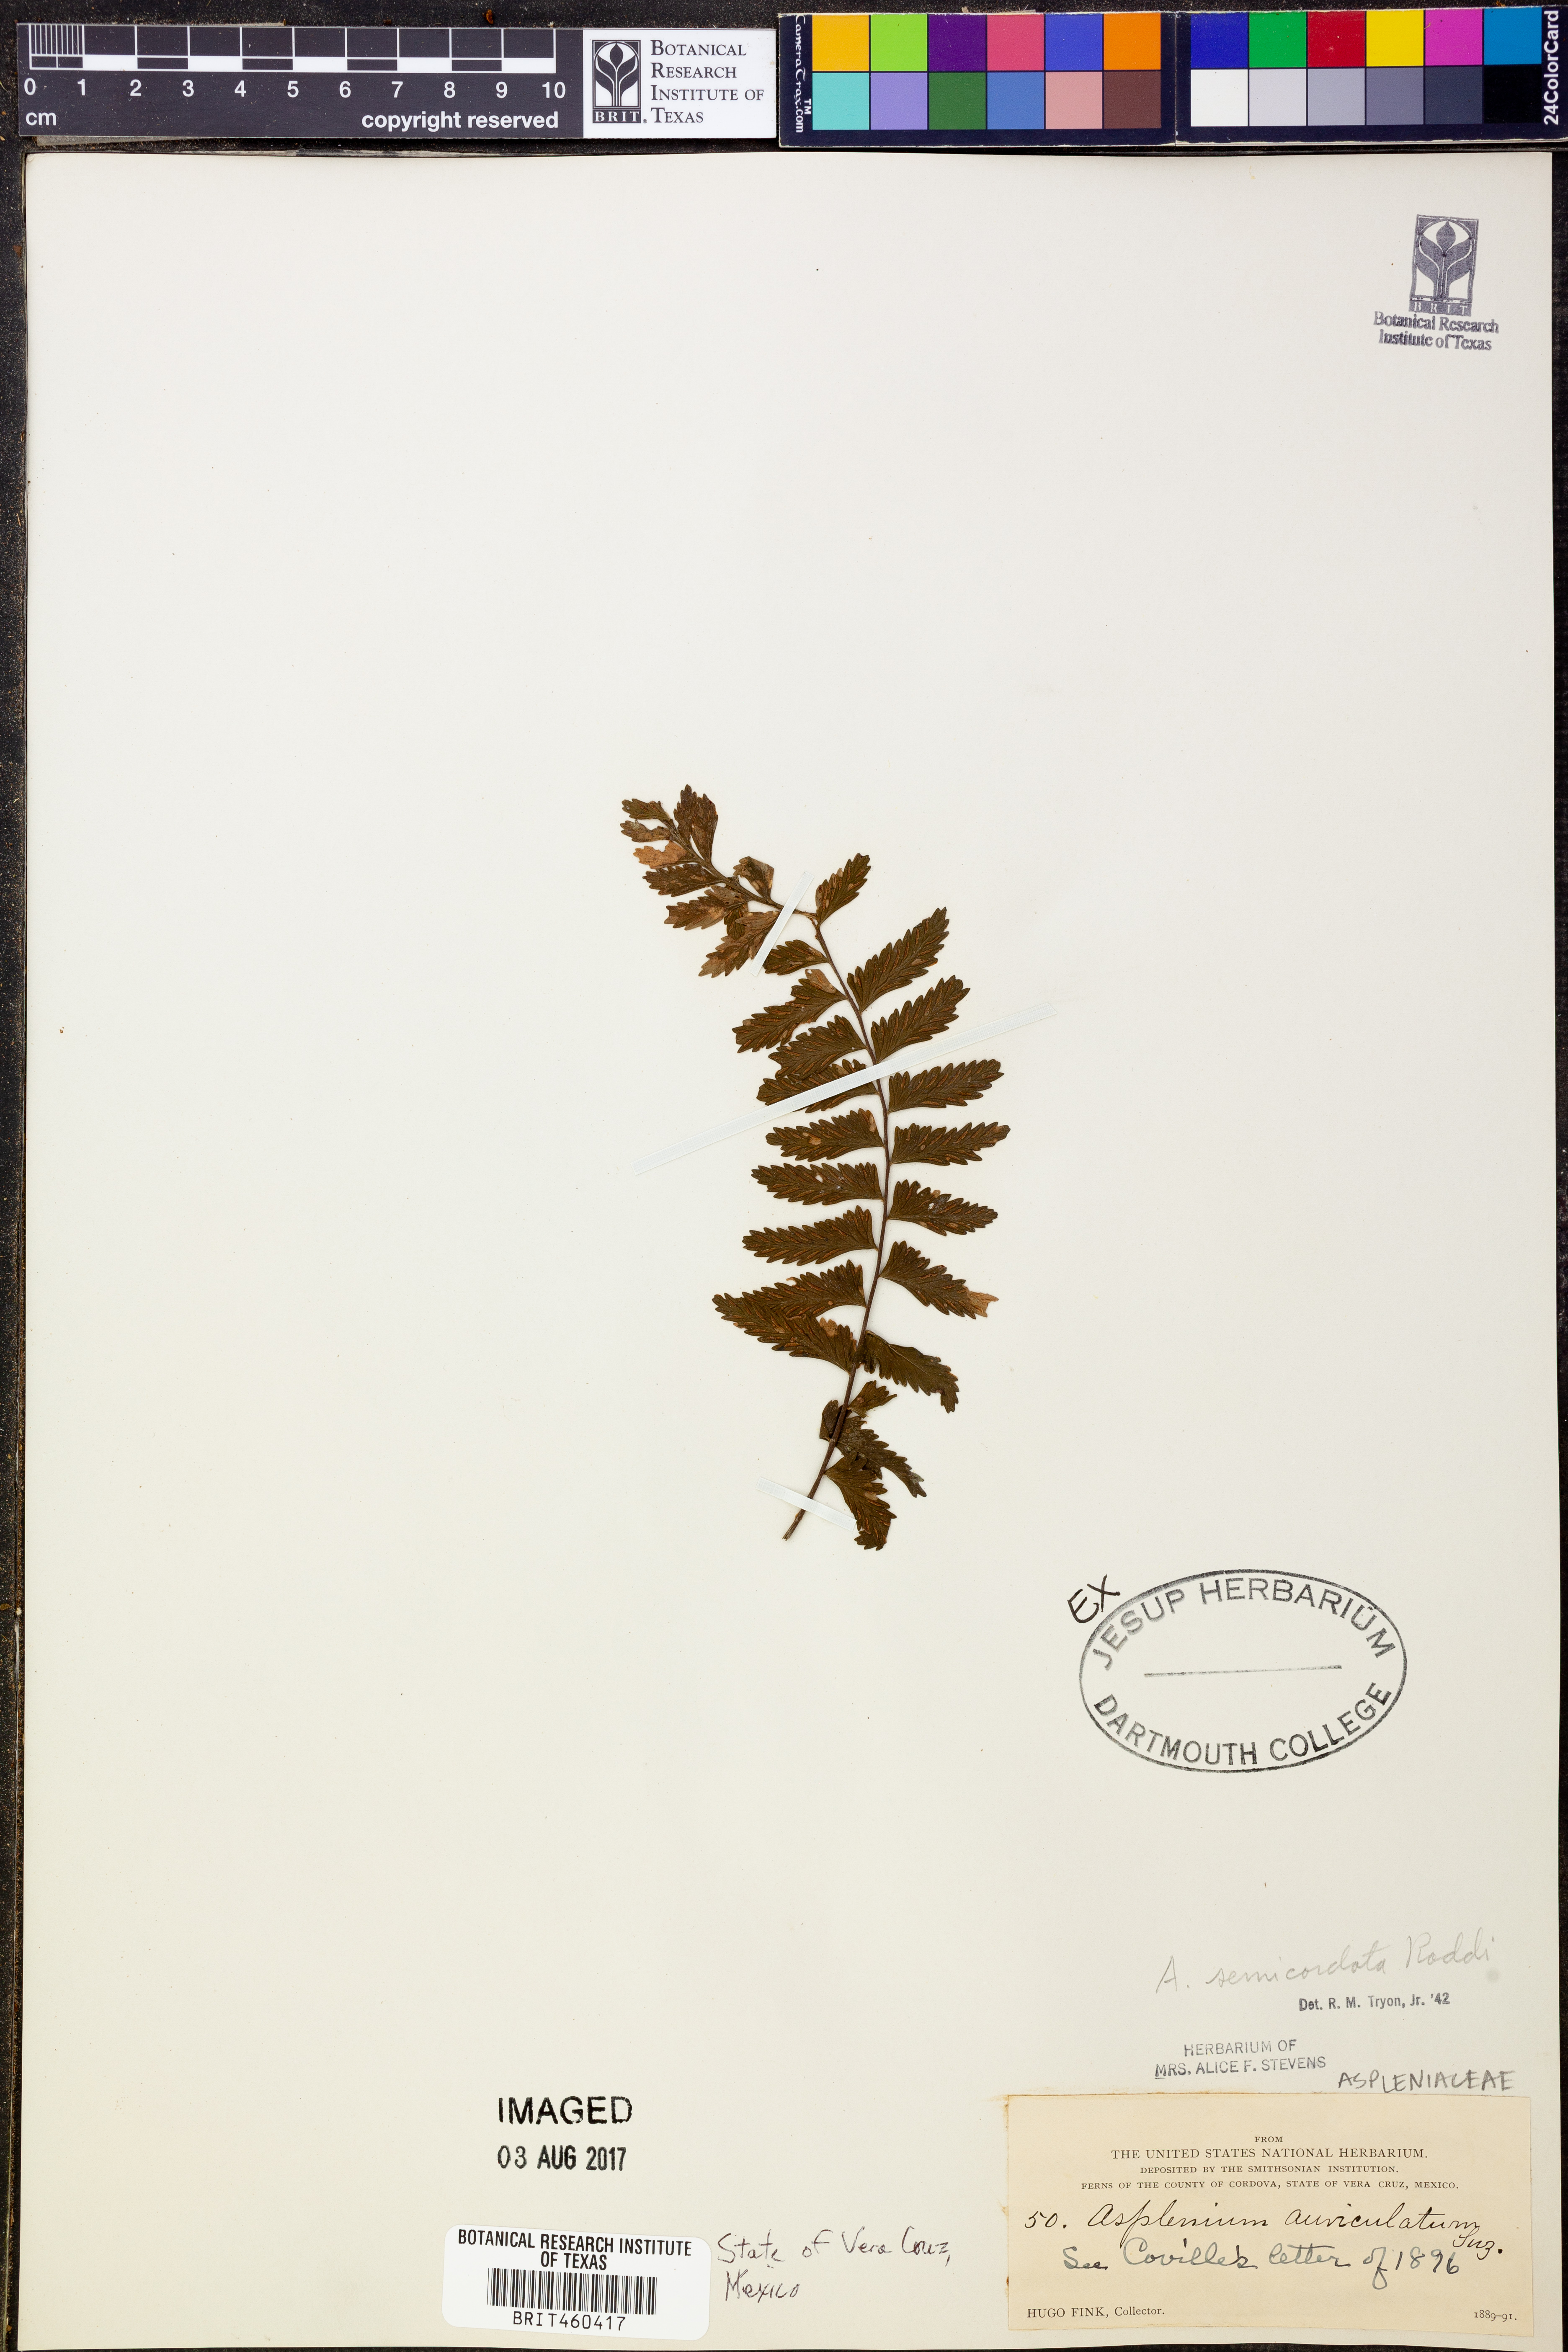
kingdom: Plantae
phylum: Tracheophyta
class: Polypodiopsida
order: Polypodiales
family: Aspleniaceae
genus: Asplenium
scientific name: Asplenium auriculatum
